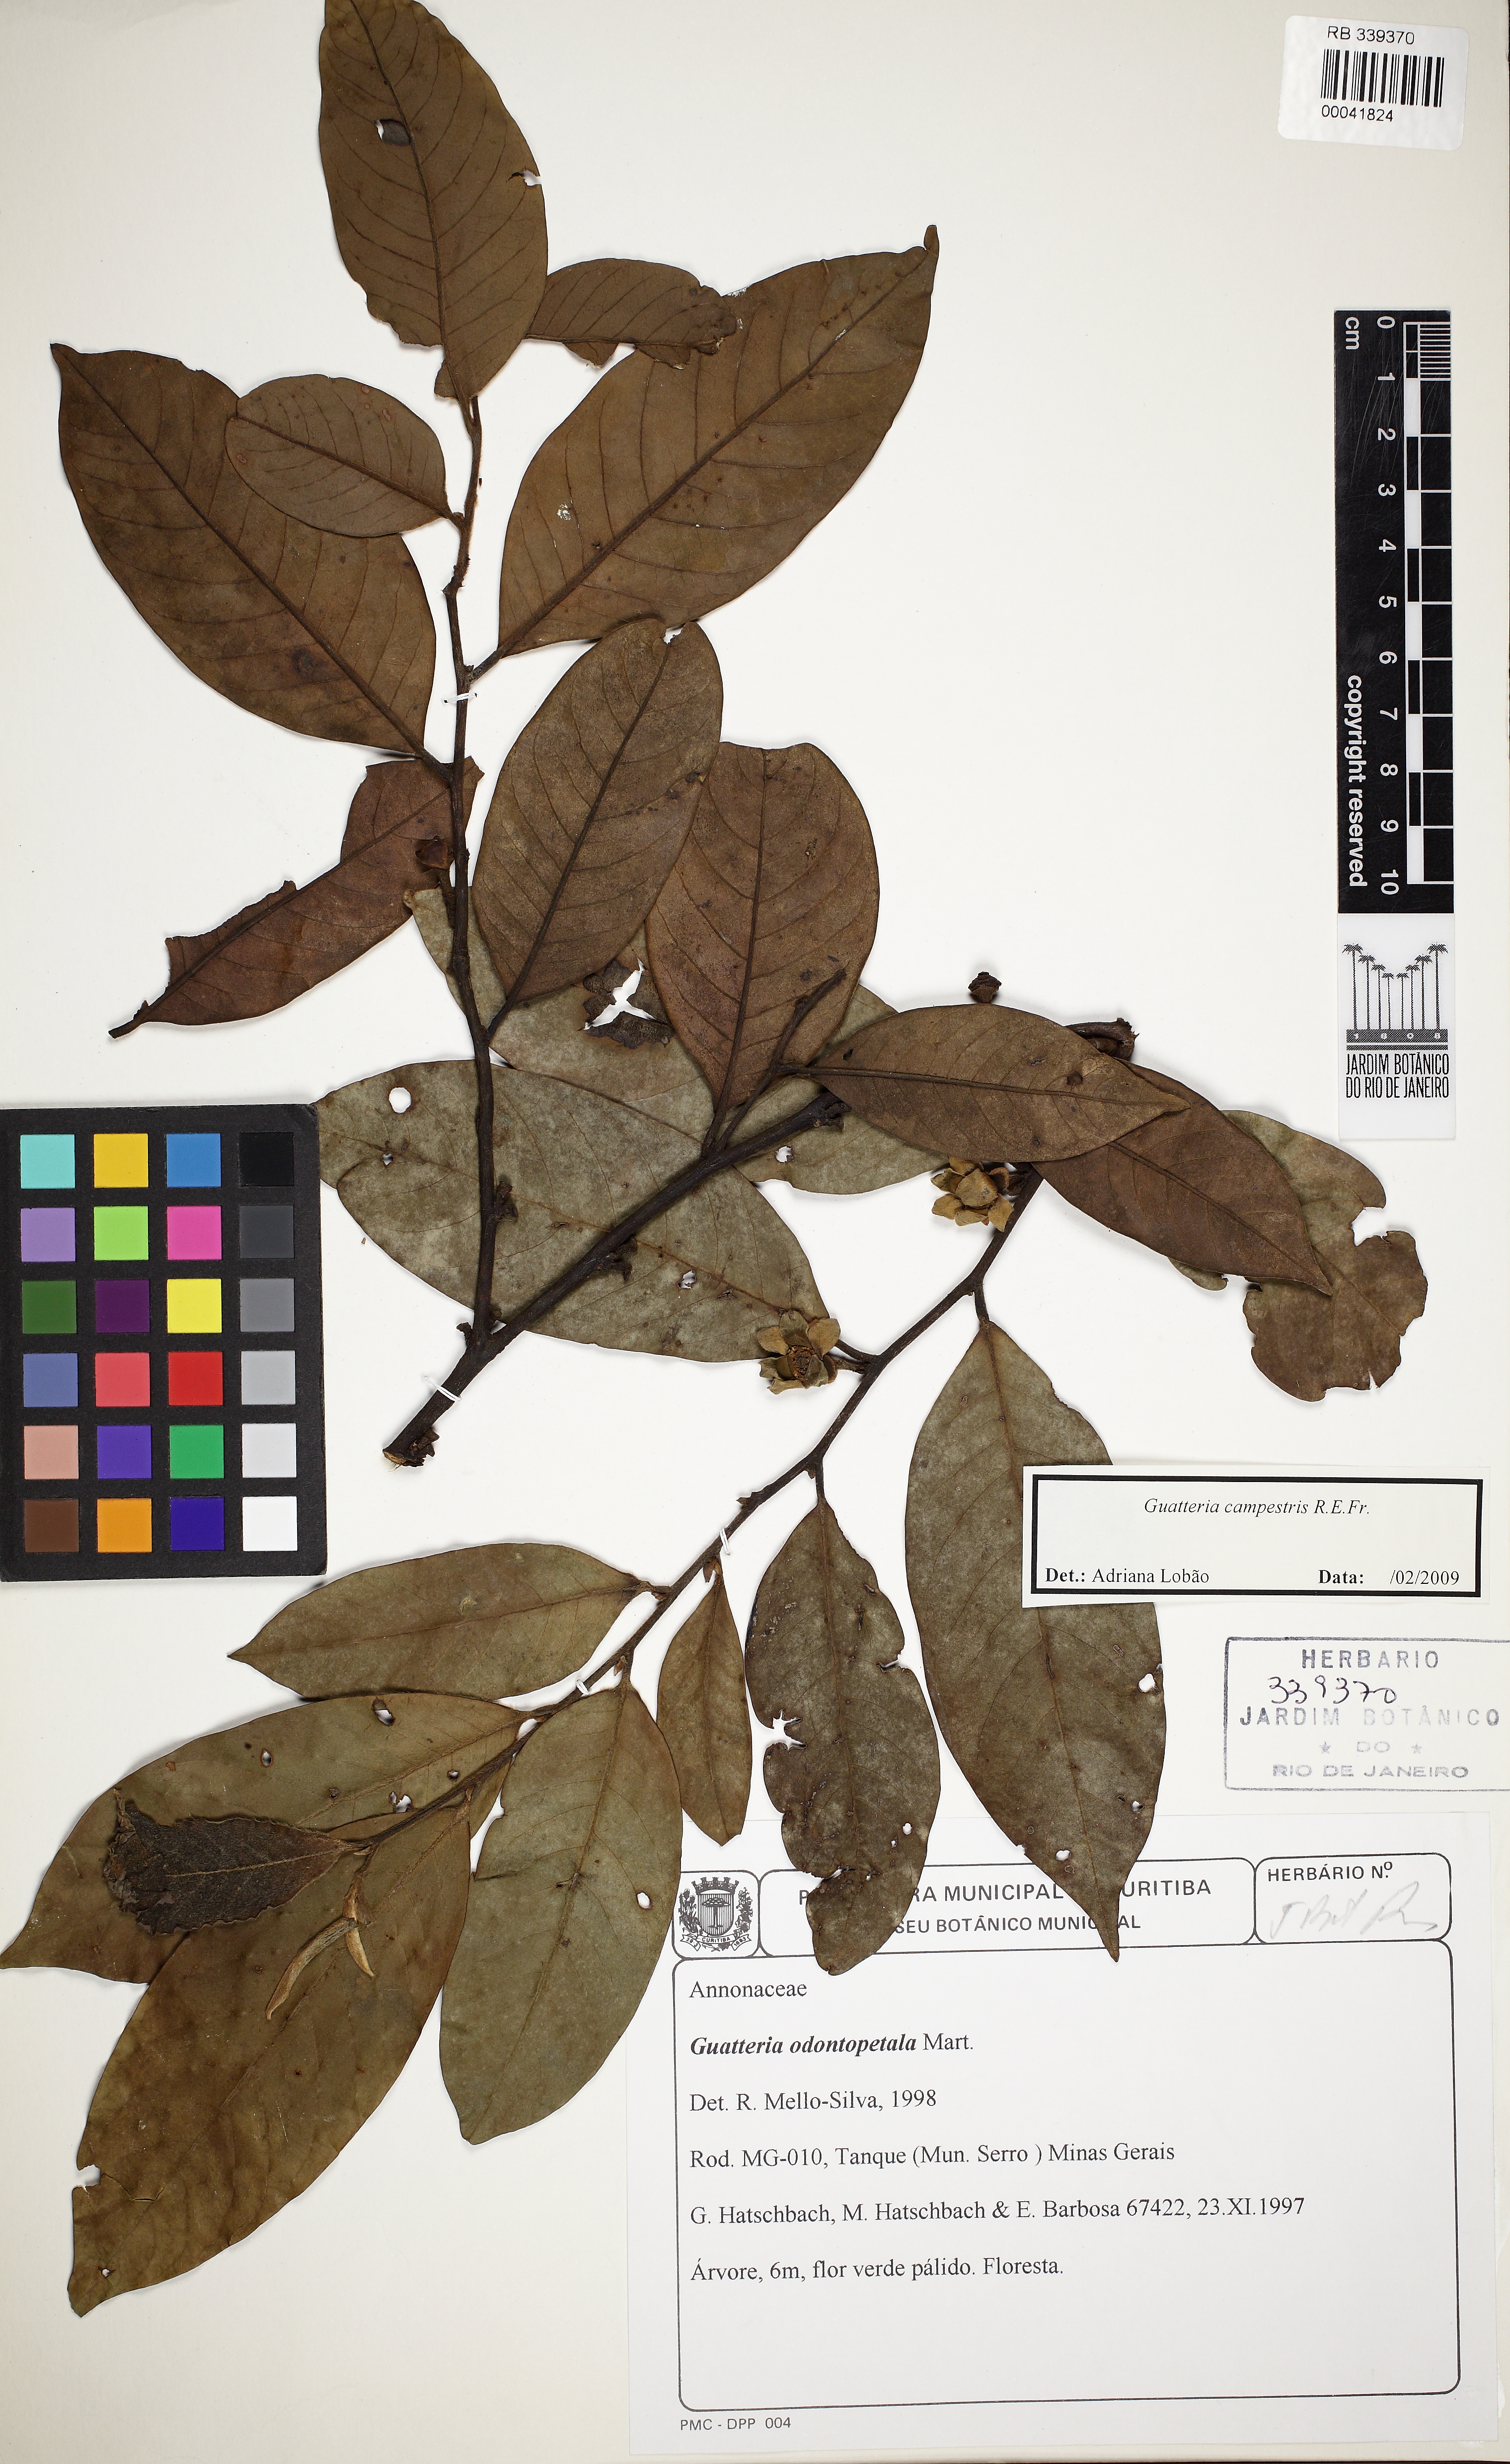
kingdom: Plantae
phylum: Tracheophyta
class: Magnoliopsida
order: Magnoliales
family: Annonaceae
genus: Guatteria
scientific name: Guatteria australis
